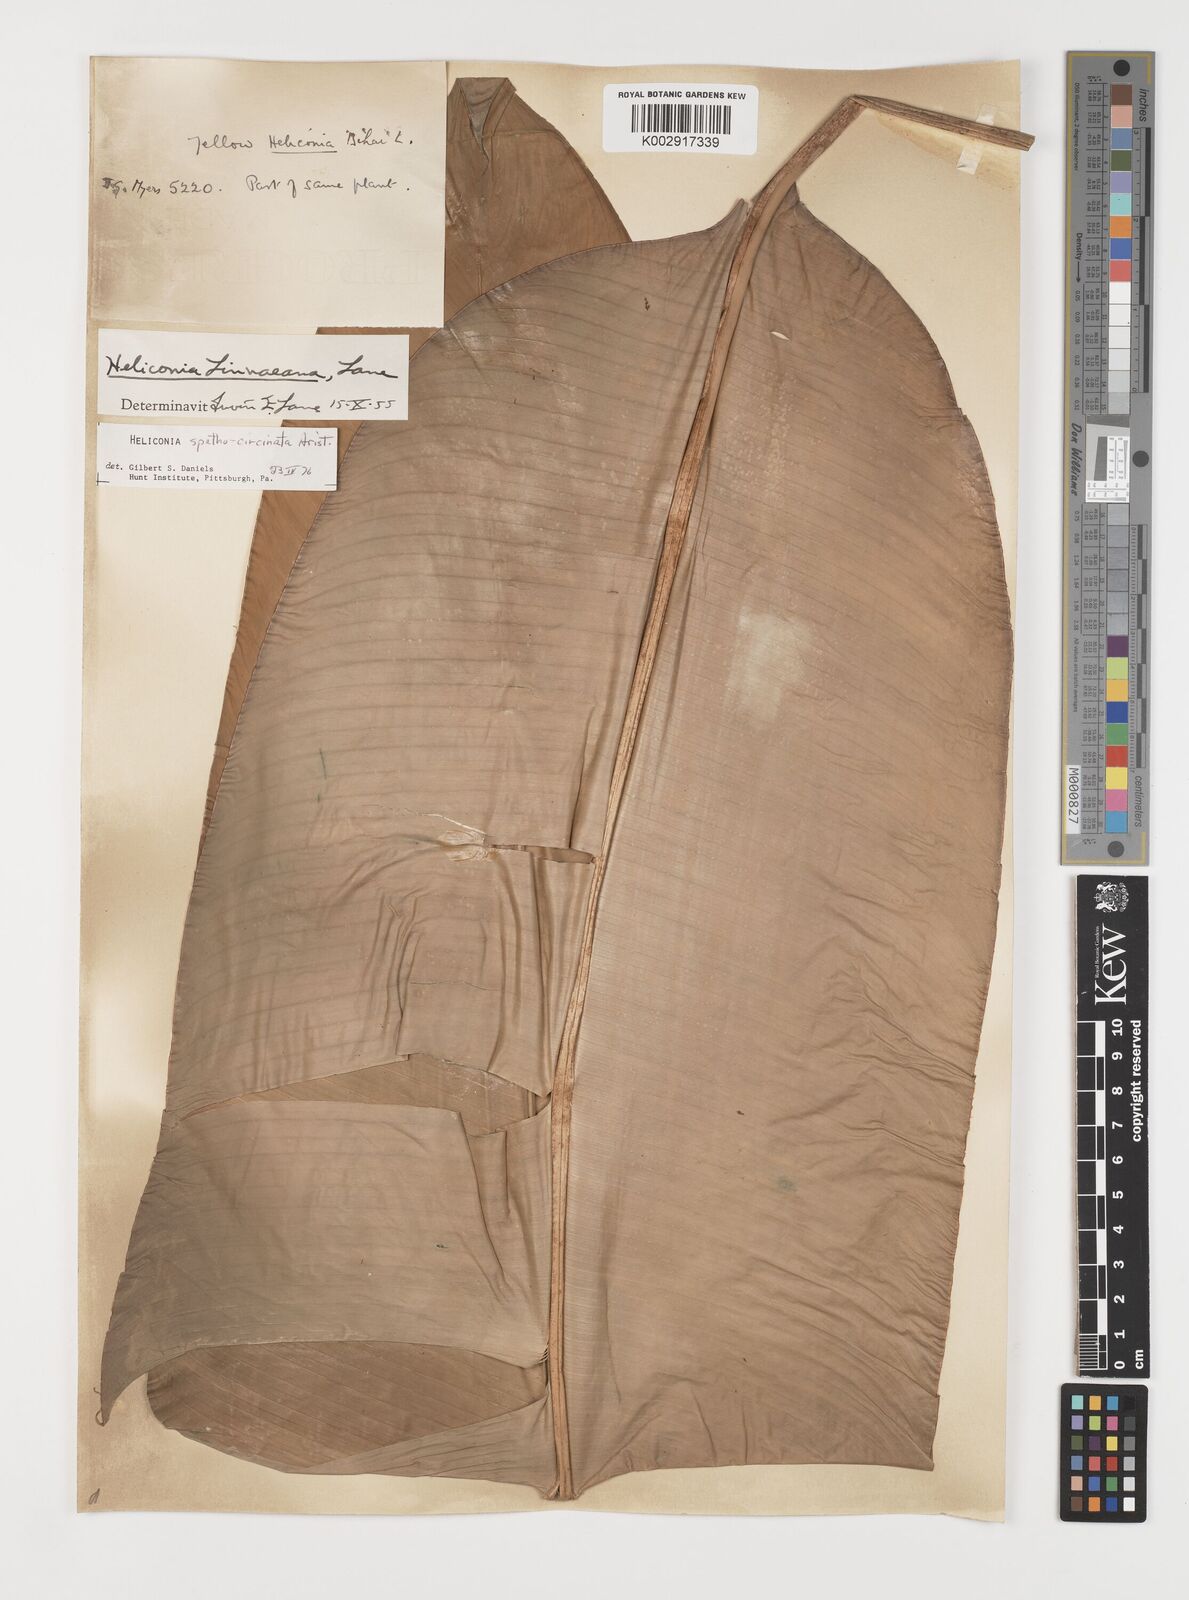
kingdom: Plantae
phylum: Tracheophyta
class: Liliopsida
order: Zingiberales
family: Heliconiaceae
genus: Heliconia
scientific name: Heliconia spathocircinata
